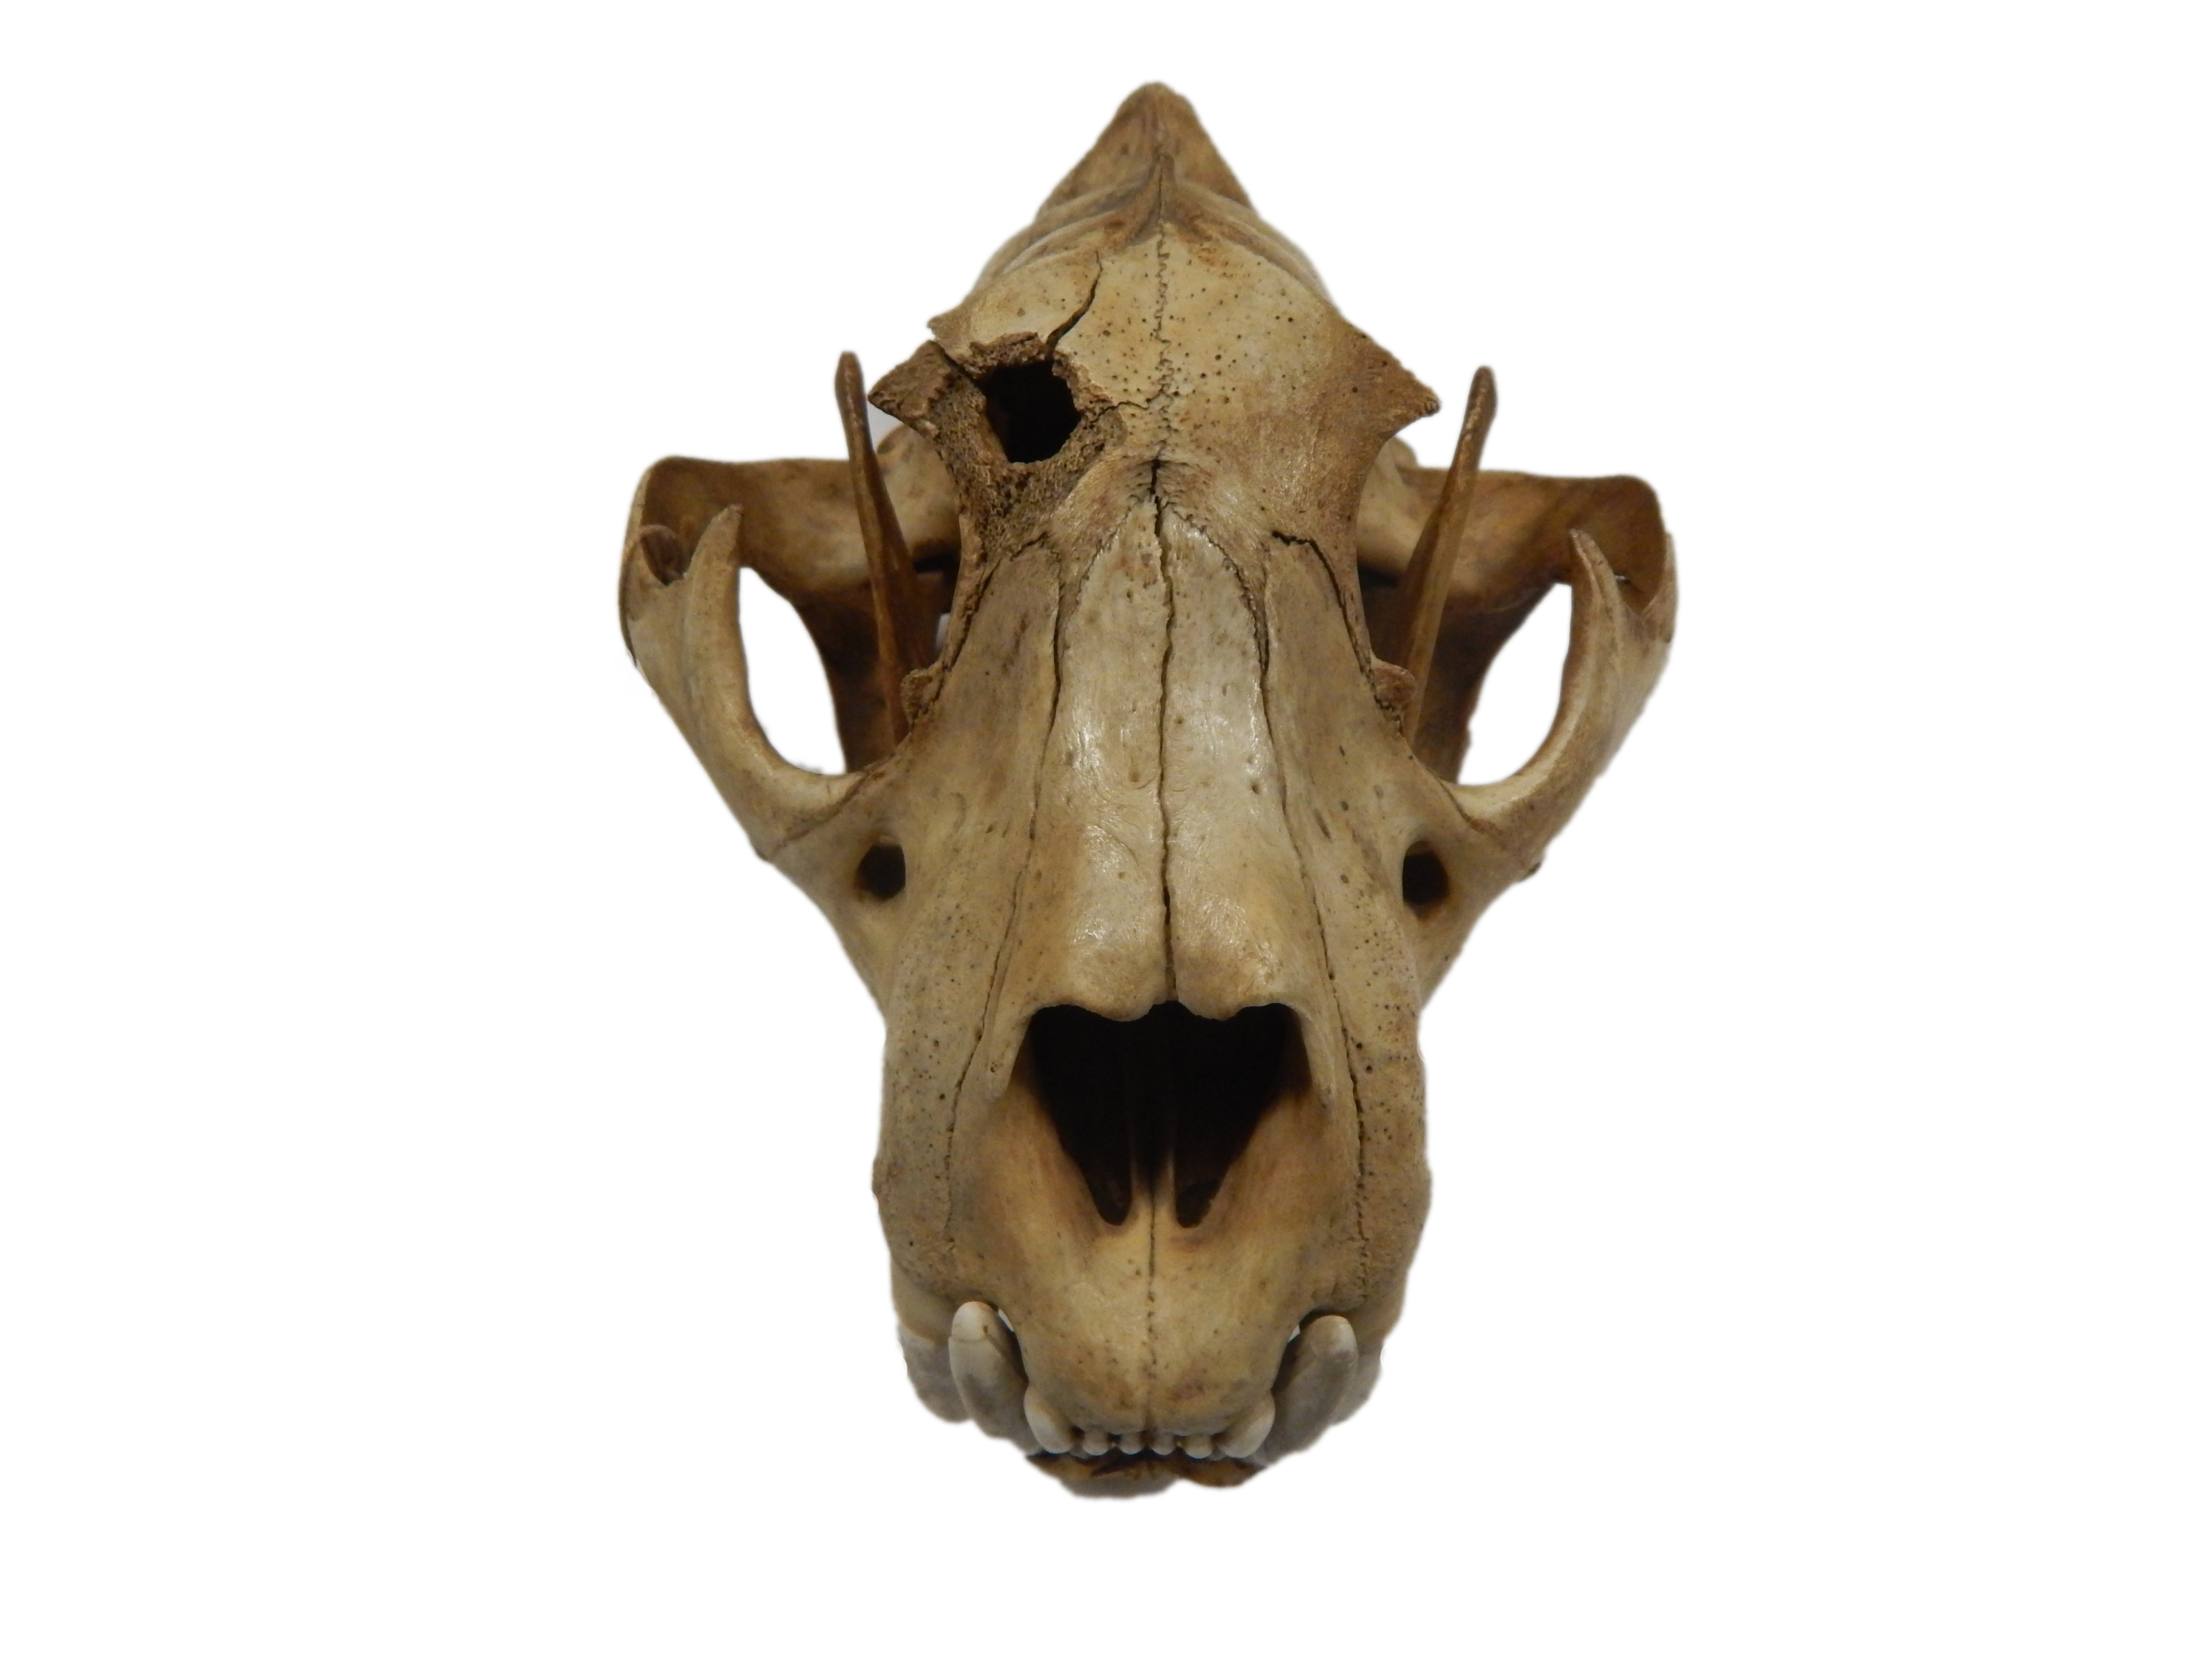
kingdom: Animalia
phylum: Chordata
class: Mammalia
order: Carnivora
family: Felidae
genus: Panthera
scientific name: Panthera onca
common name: Jaguar
